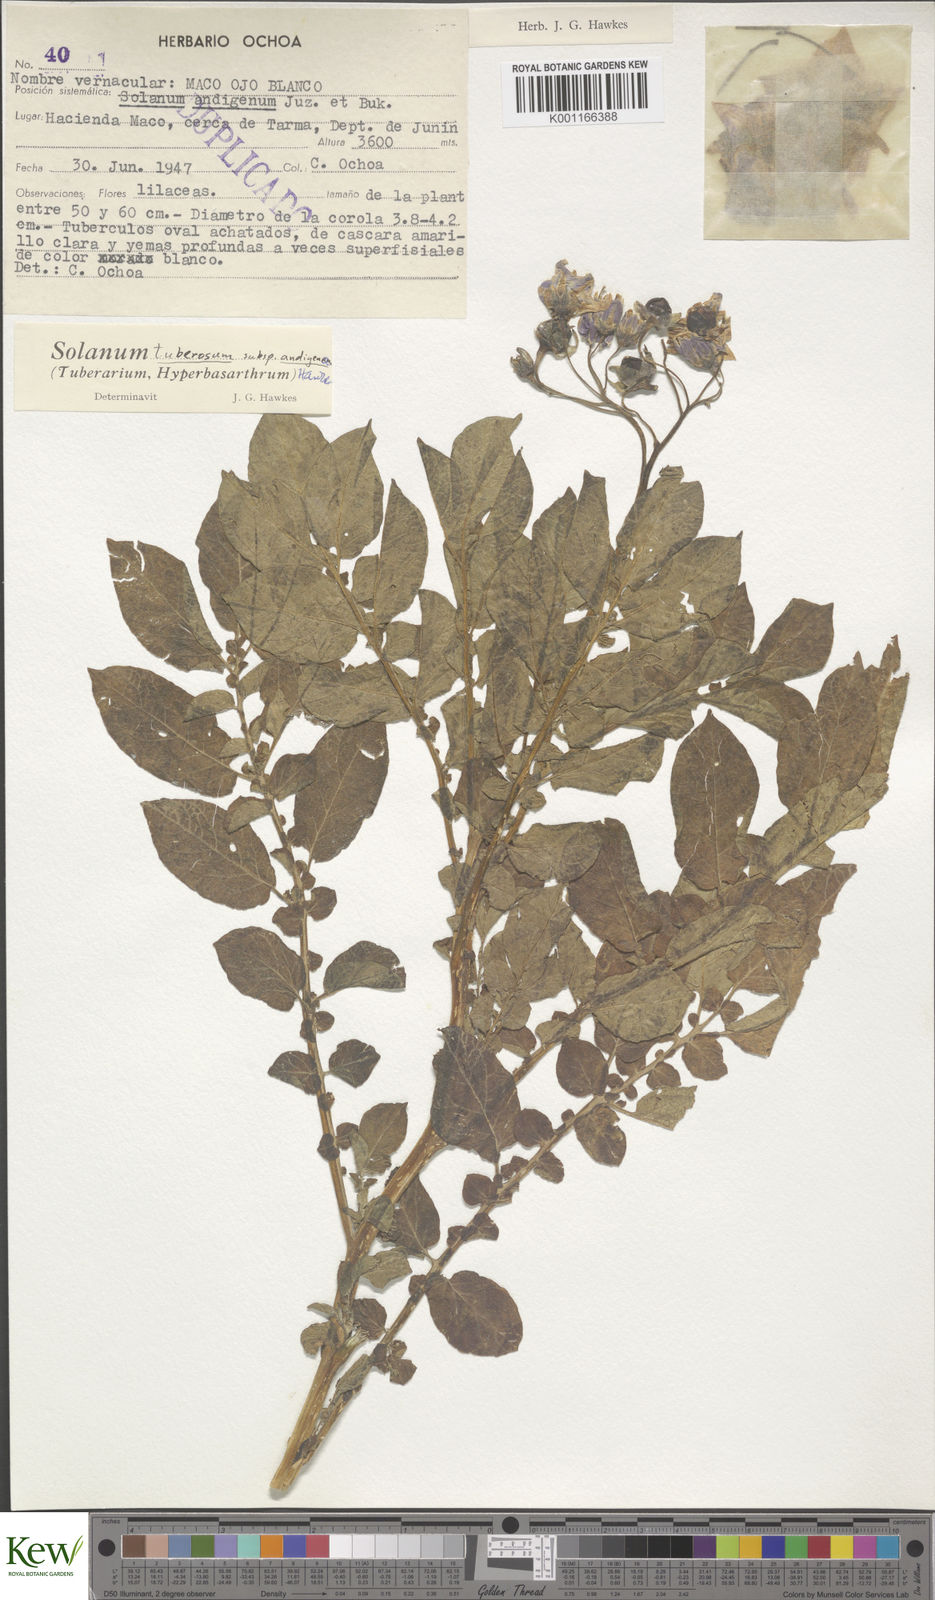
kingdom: Plantae
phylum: Tracheophyta
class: Magnoliopsida
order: Solanales
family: Solanaceae
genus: Solanum
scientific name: Solanum tuberosum
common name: Potato
